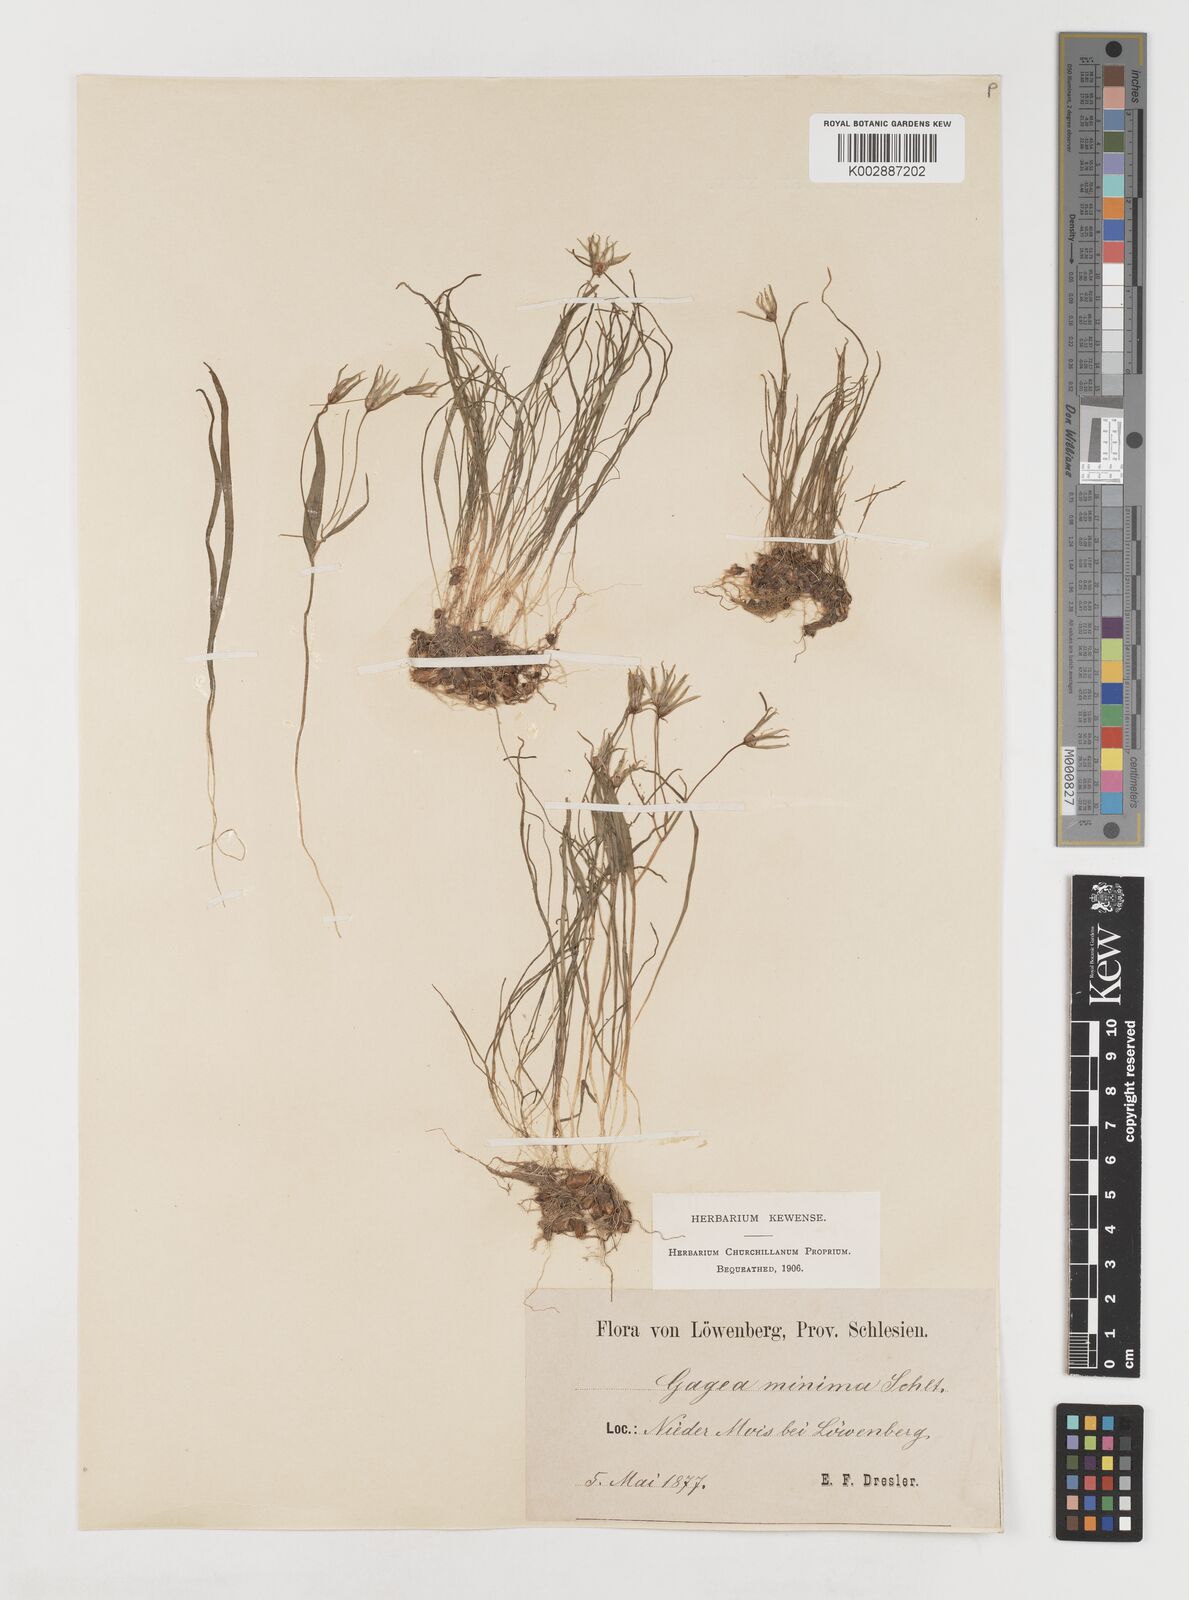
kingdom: Plantae
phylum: Tracheophyta
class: Liliopsida
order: Liliales
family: Liliaceae
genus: Gagea
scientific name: Gagea minima
